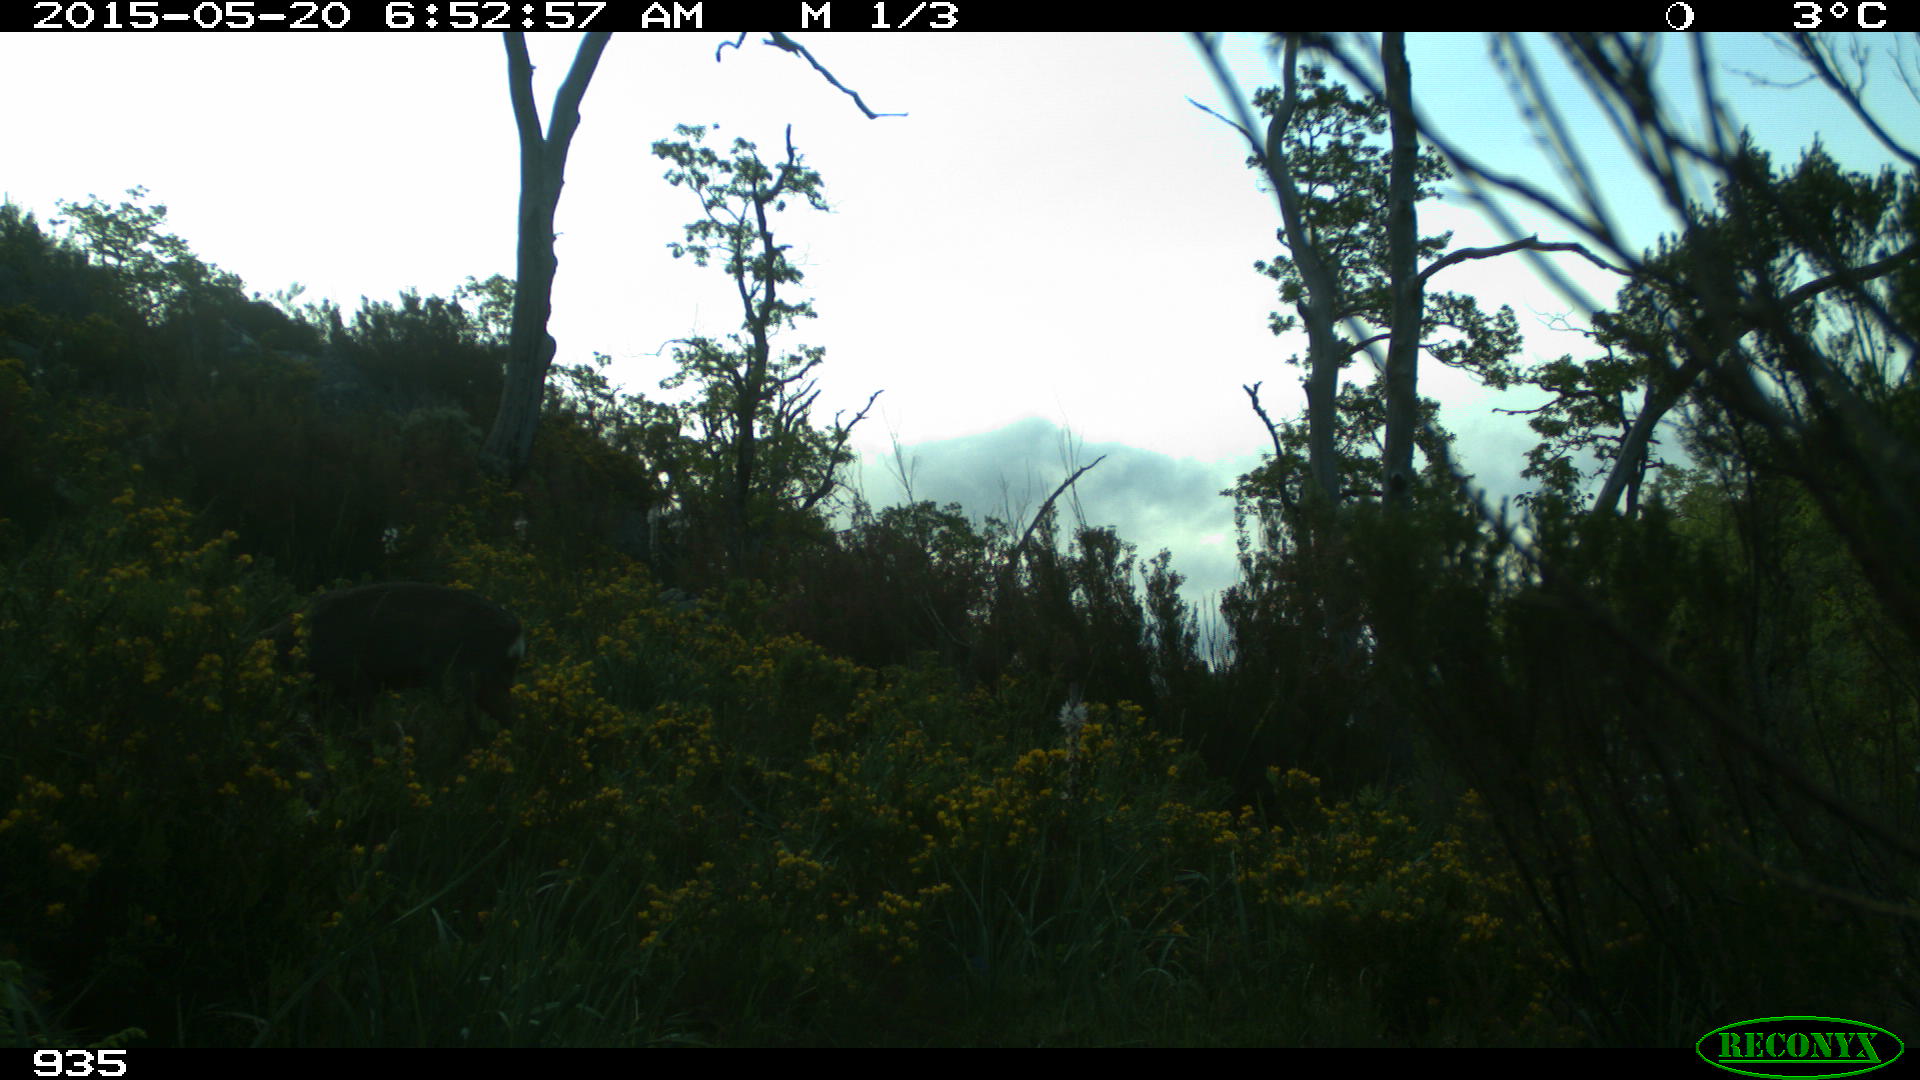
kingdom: Animalia
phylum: Chordata
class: Mammalia
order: Artiodactyla
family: Cervidae
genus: Capreolus
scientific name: Capreolus capreolus
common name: Western roe deer
